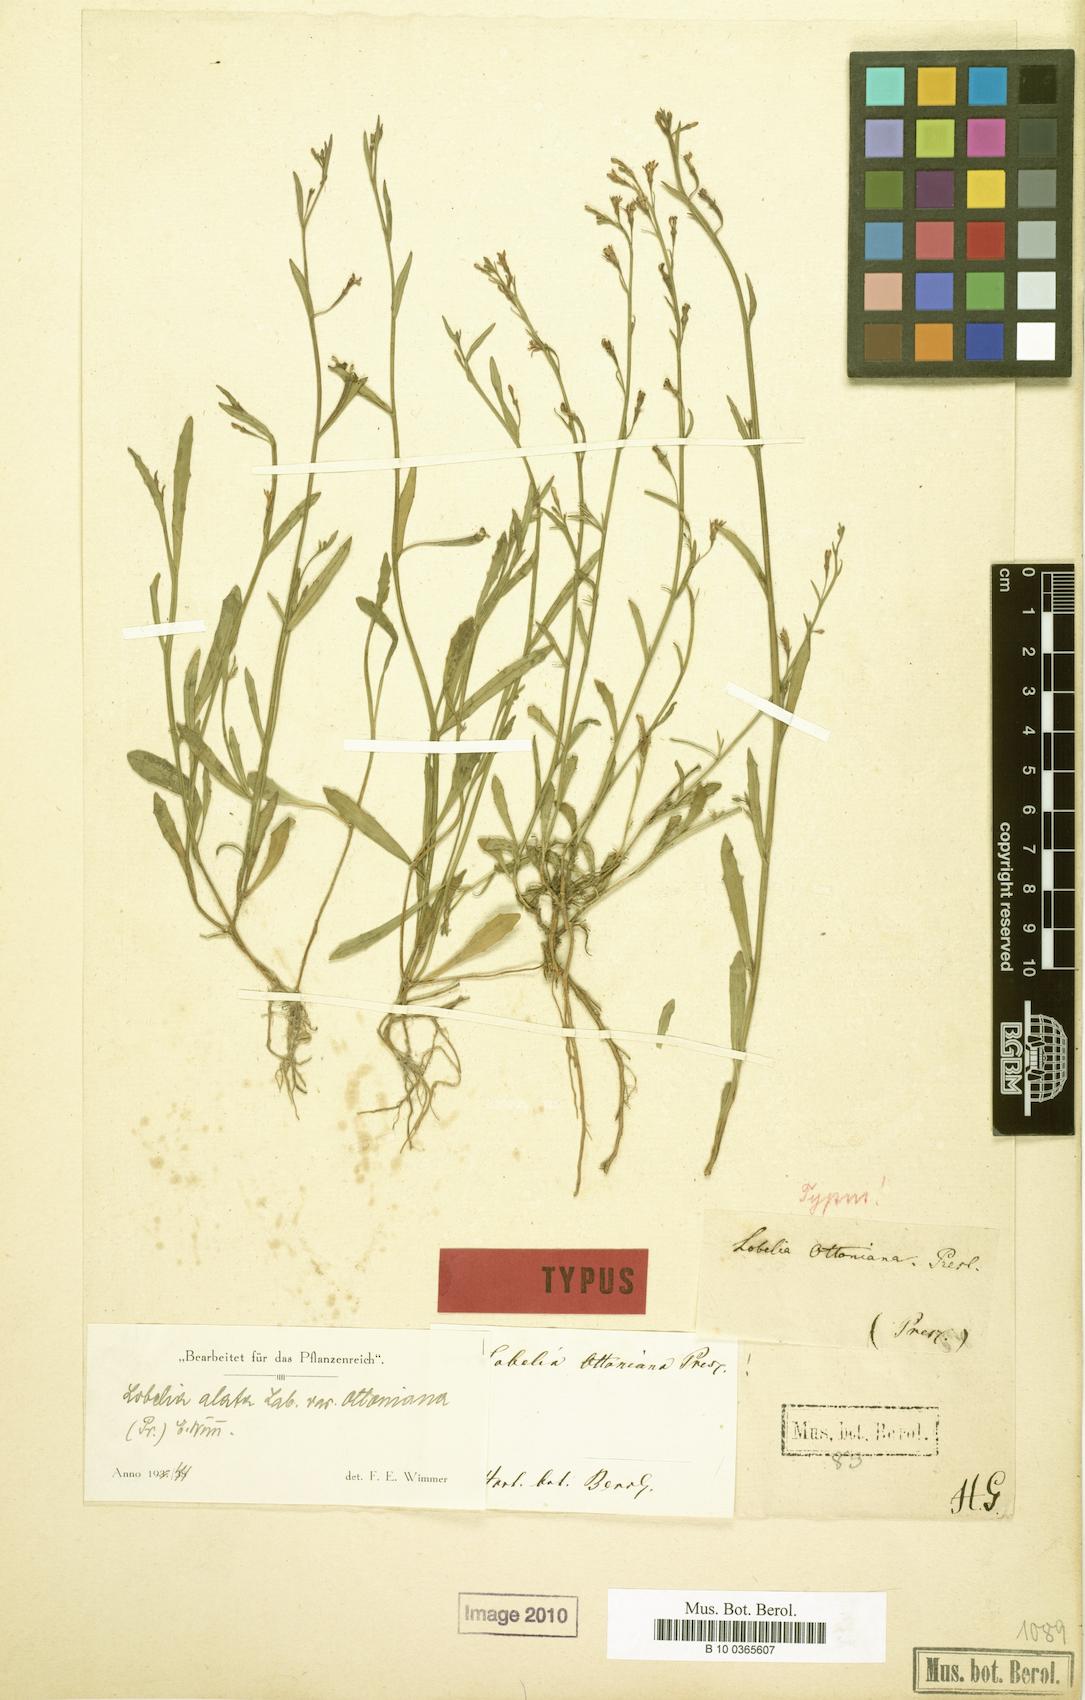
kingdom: Plantae
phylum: Tracheophyta
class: Magnoliopsida
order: Asterales
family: Campanulaceae
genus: Lobelia
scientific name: Lobelia anceps
